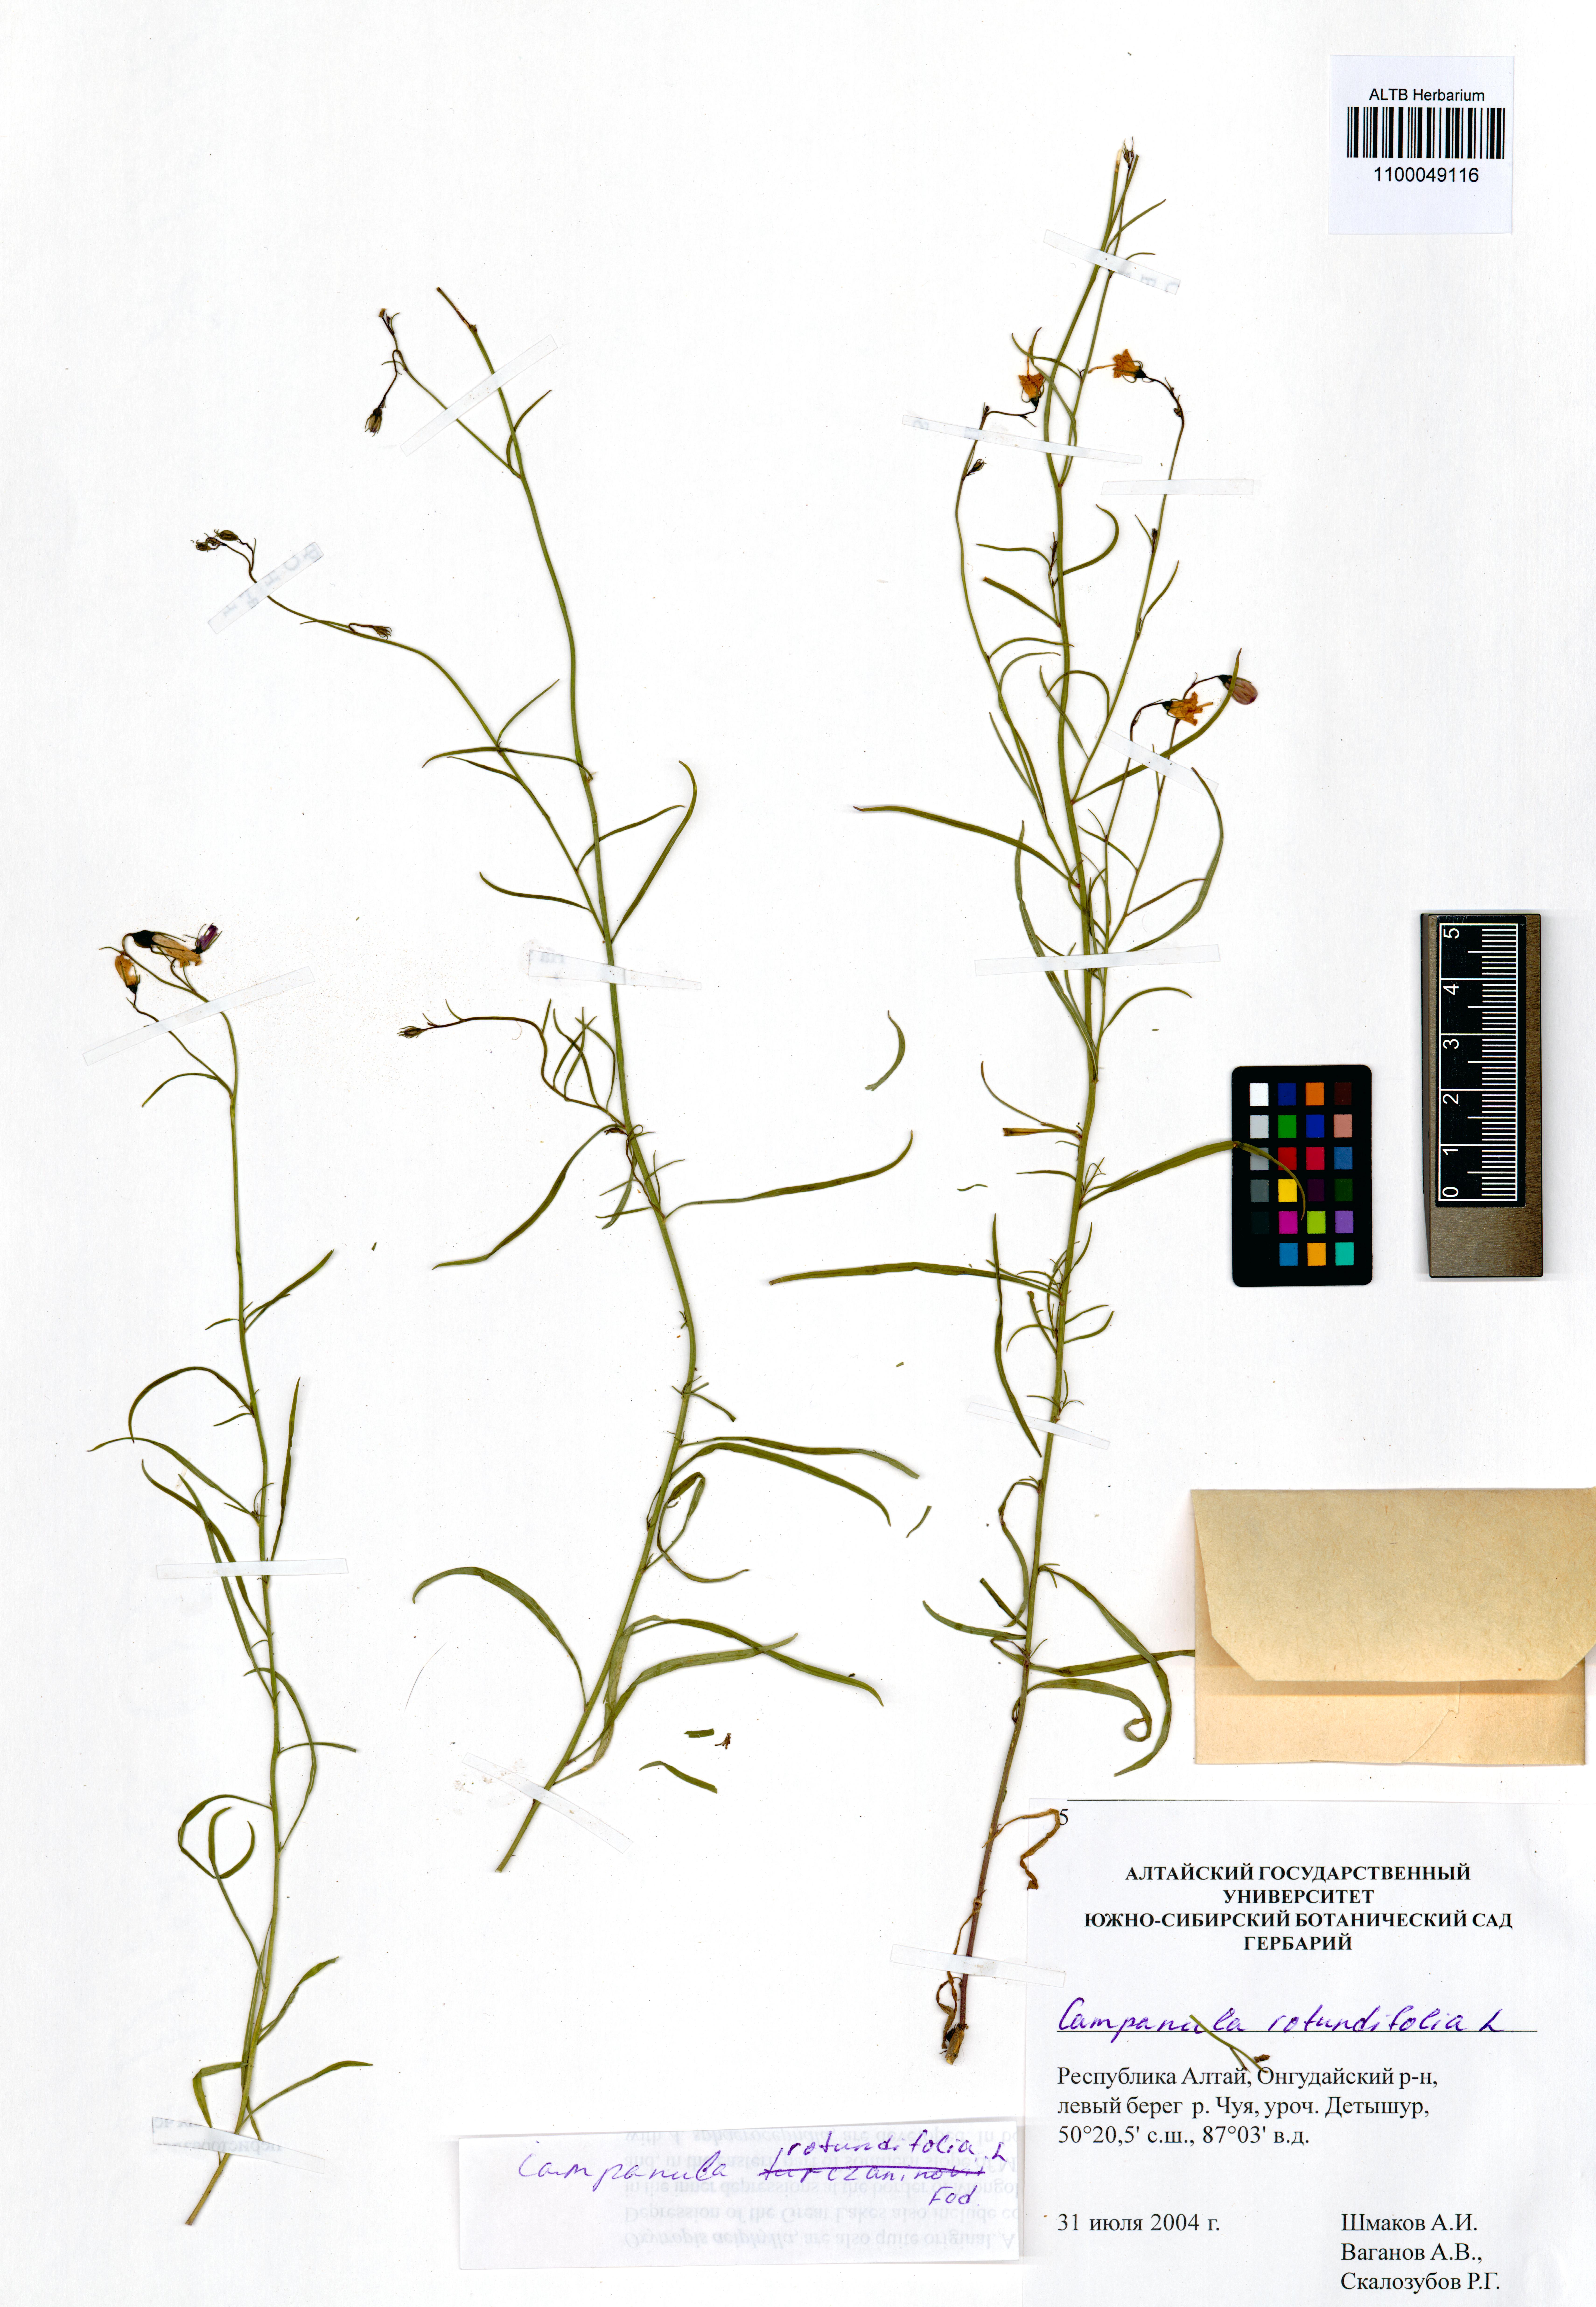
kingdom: Plantae
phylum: Tracheophyta
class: Magnoliopsida
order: Asterales
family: Campanulaceae
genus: Campanula
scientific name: Campanula rotundifolia
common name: Harebell
